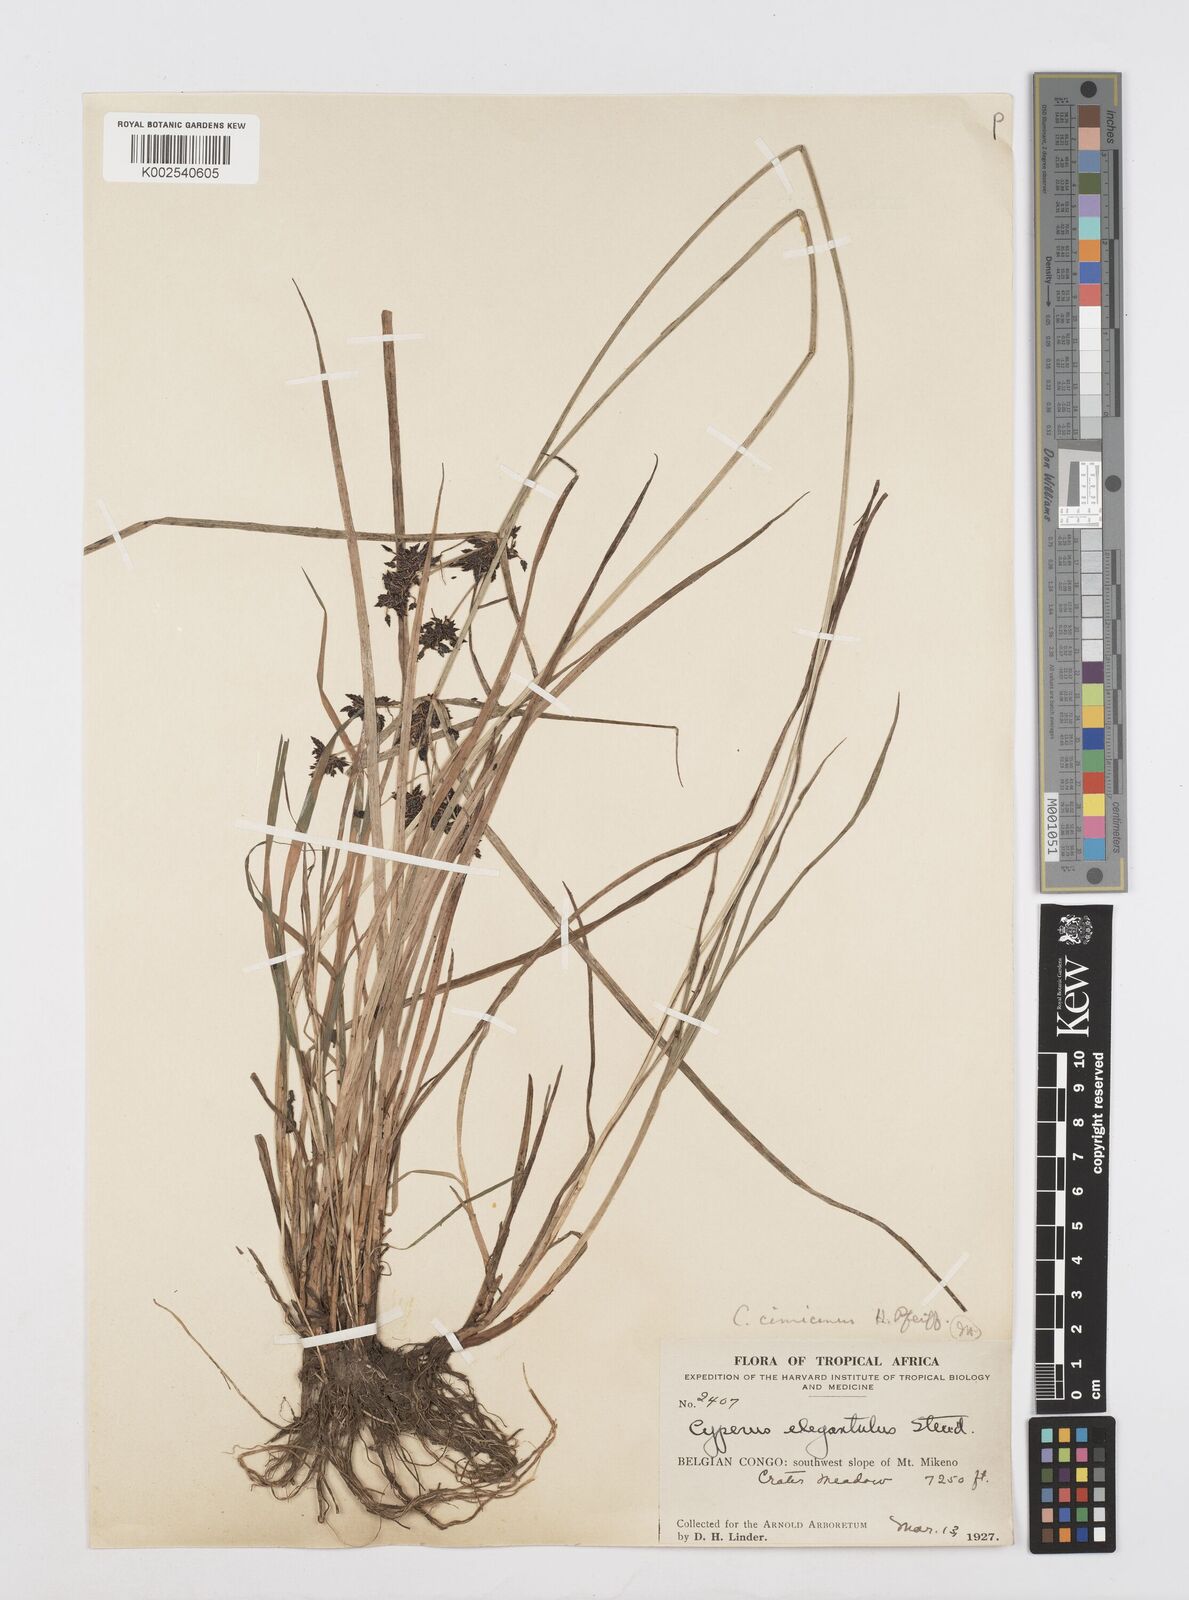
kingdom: Plantae
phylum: Tracheophyta
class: Liliopsida
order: Poales
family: Cyperaceae
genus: Cyperus
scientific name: Cyperus elegantulus
